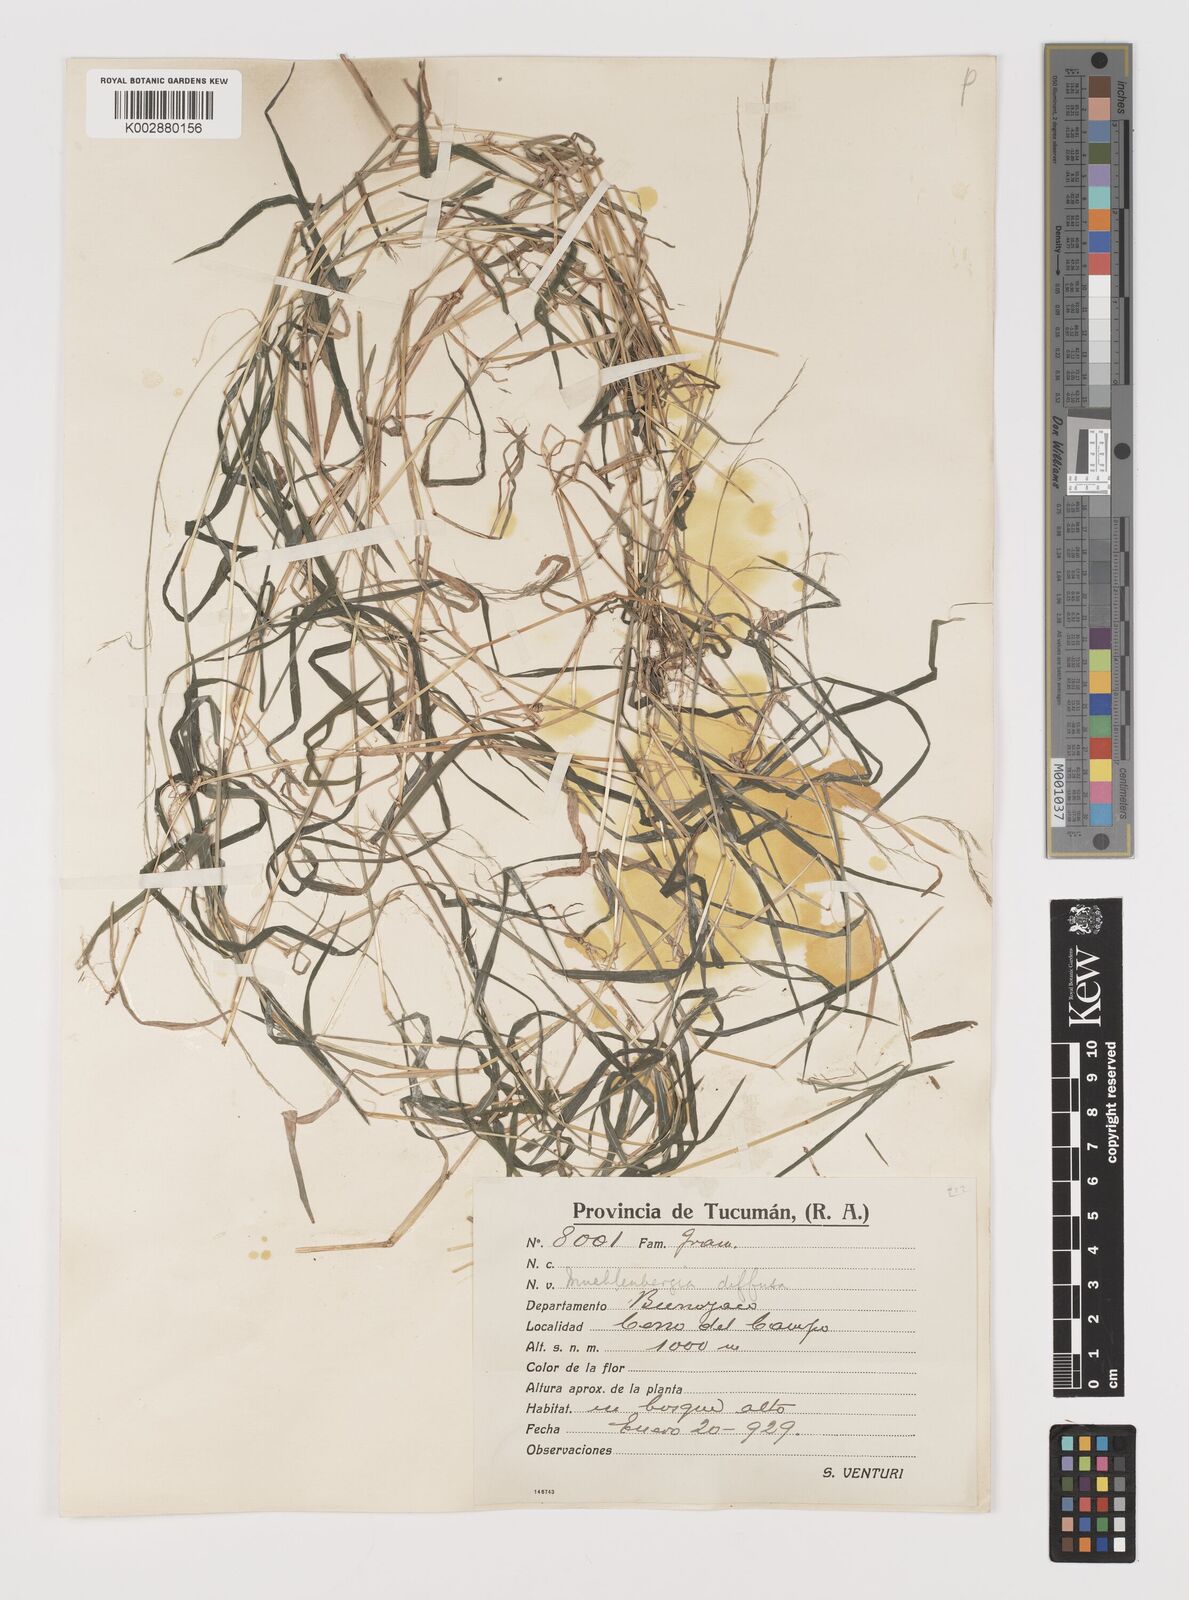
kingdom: Plantae
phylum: Tracheophyta
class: Liliopsida
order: Poales
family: Poaceae
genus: Muhlenbergia
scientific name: Muhlenbergia schreberi
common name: Nimblewill
